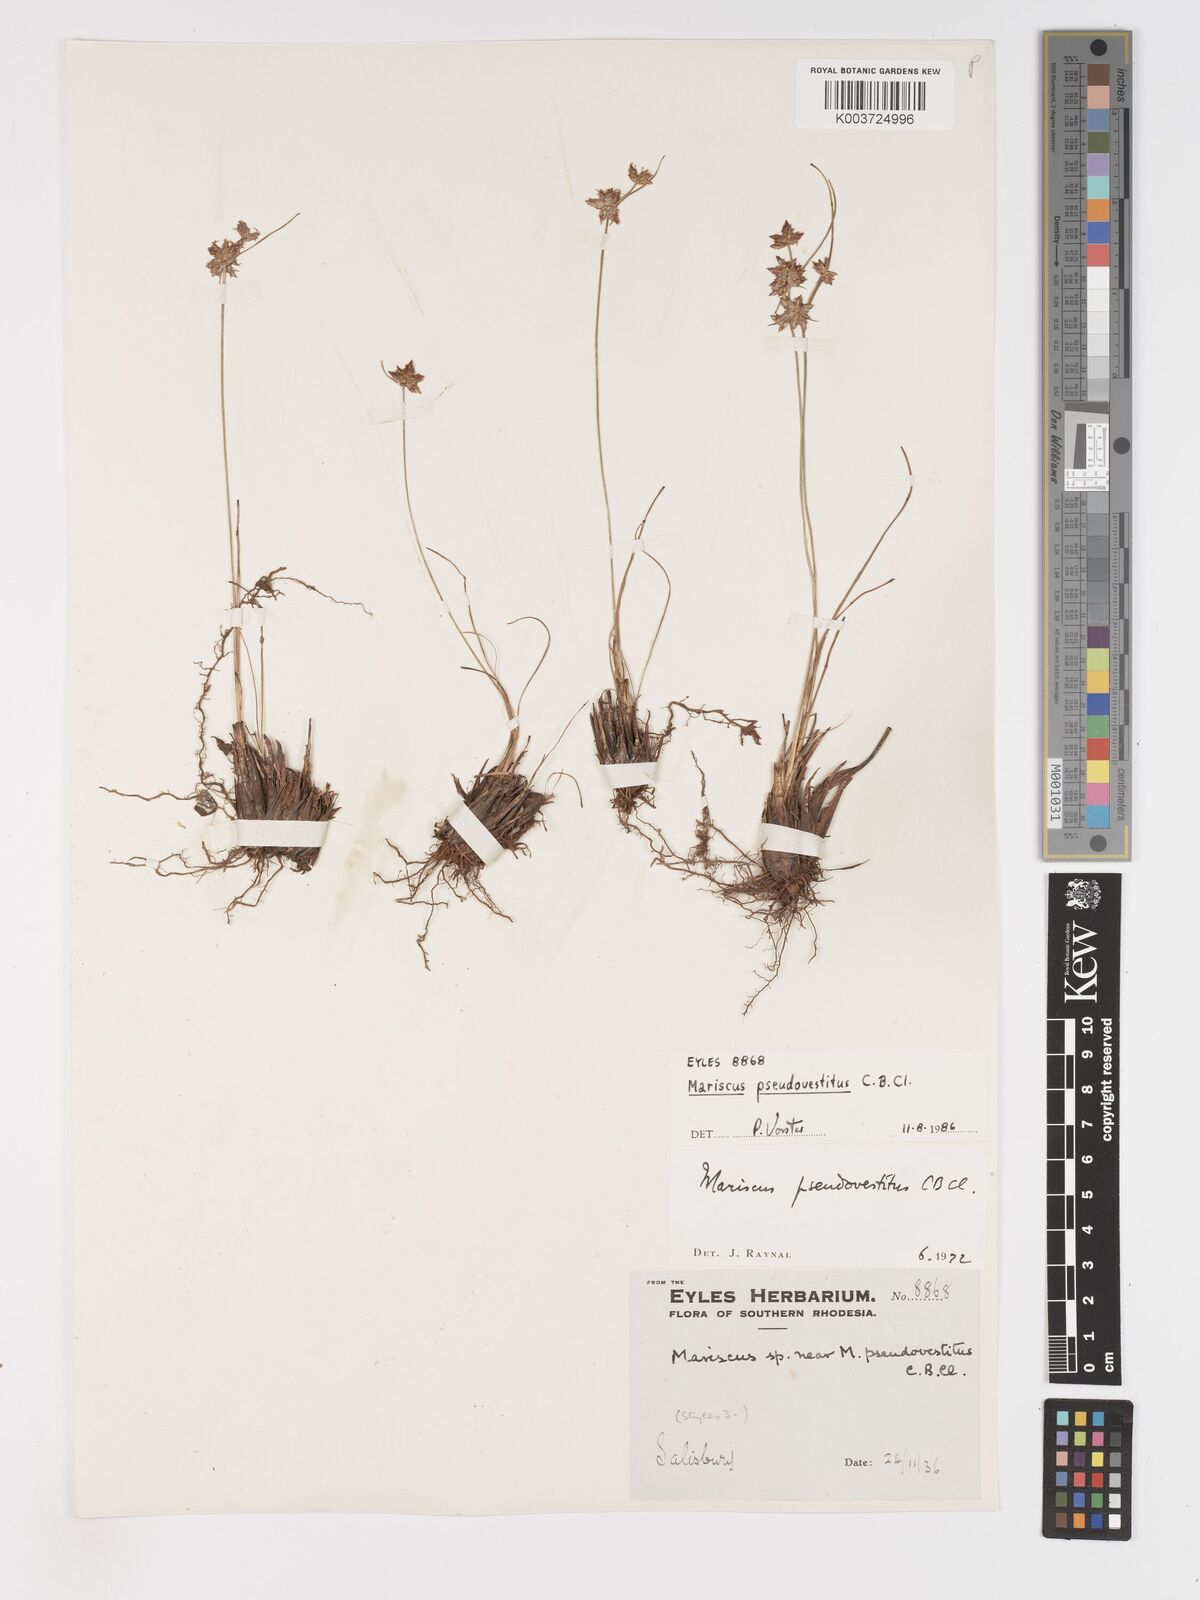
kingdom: Plantae
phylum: Tracheophyta
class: Liliopsida
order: Poales
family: Cyperaceae
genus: Cyperus
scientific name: Cyperus pseudovestitus
